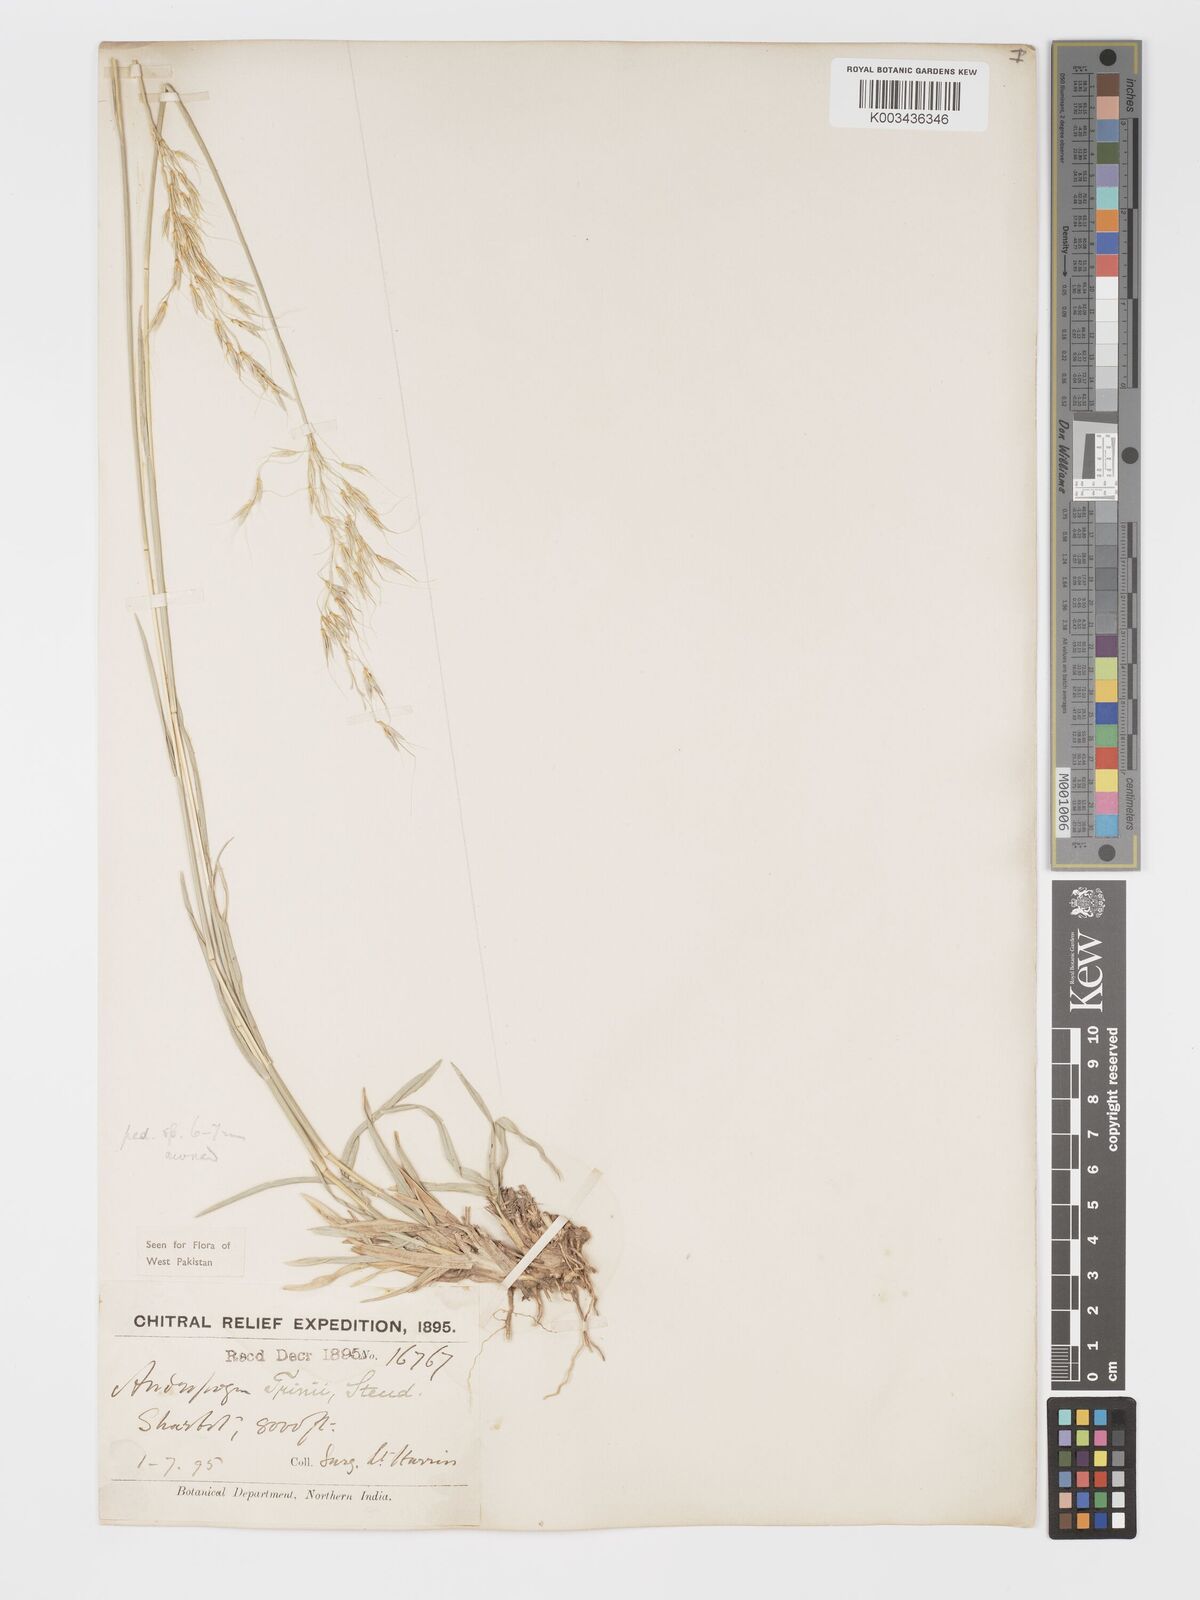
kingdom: Plantae
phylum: Tracheophyta
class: Liliopsida
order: Poales
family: Poaceae
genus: Chrysopogon
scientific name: Chrysopogon serrulatus
